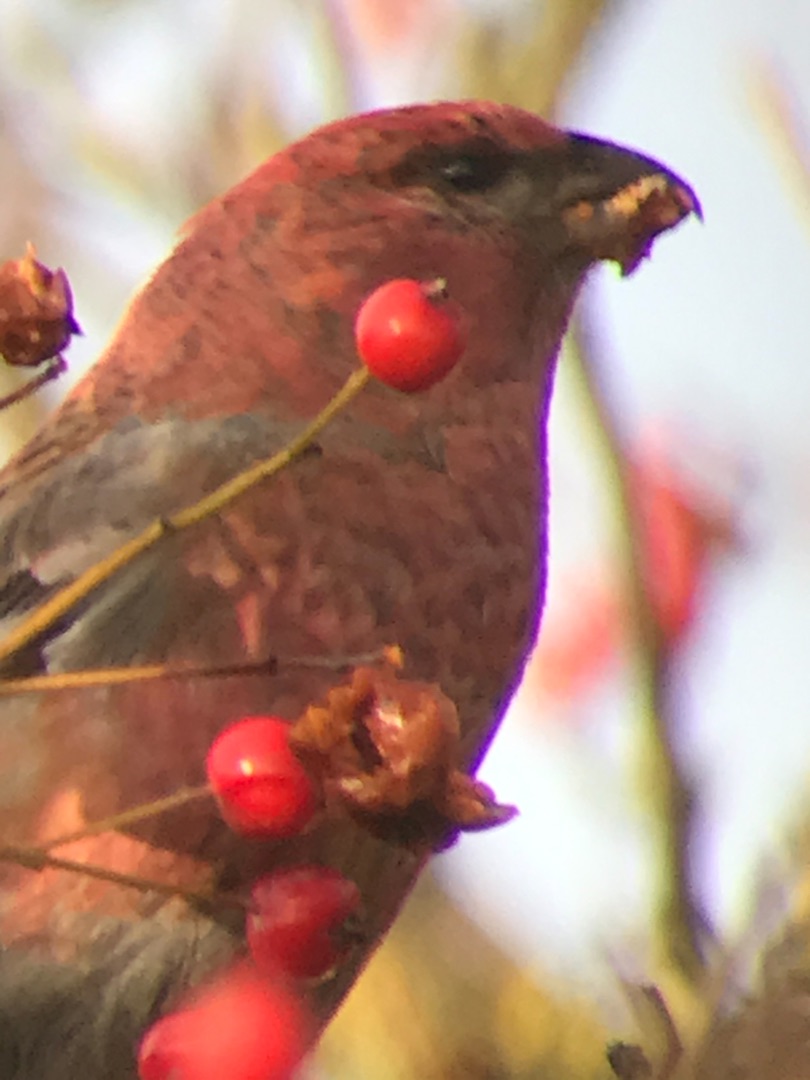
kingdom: Animalia
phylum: Chordata
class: Aves
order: Passeriformes
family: Fringillidae
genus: Pinicola
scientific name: Pinicola enucleator
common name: Krognæb
